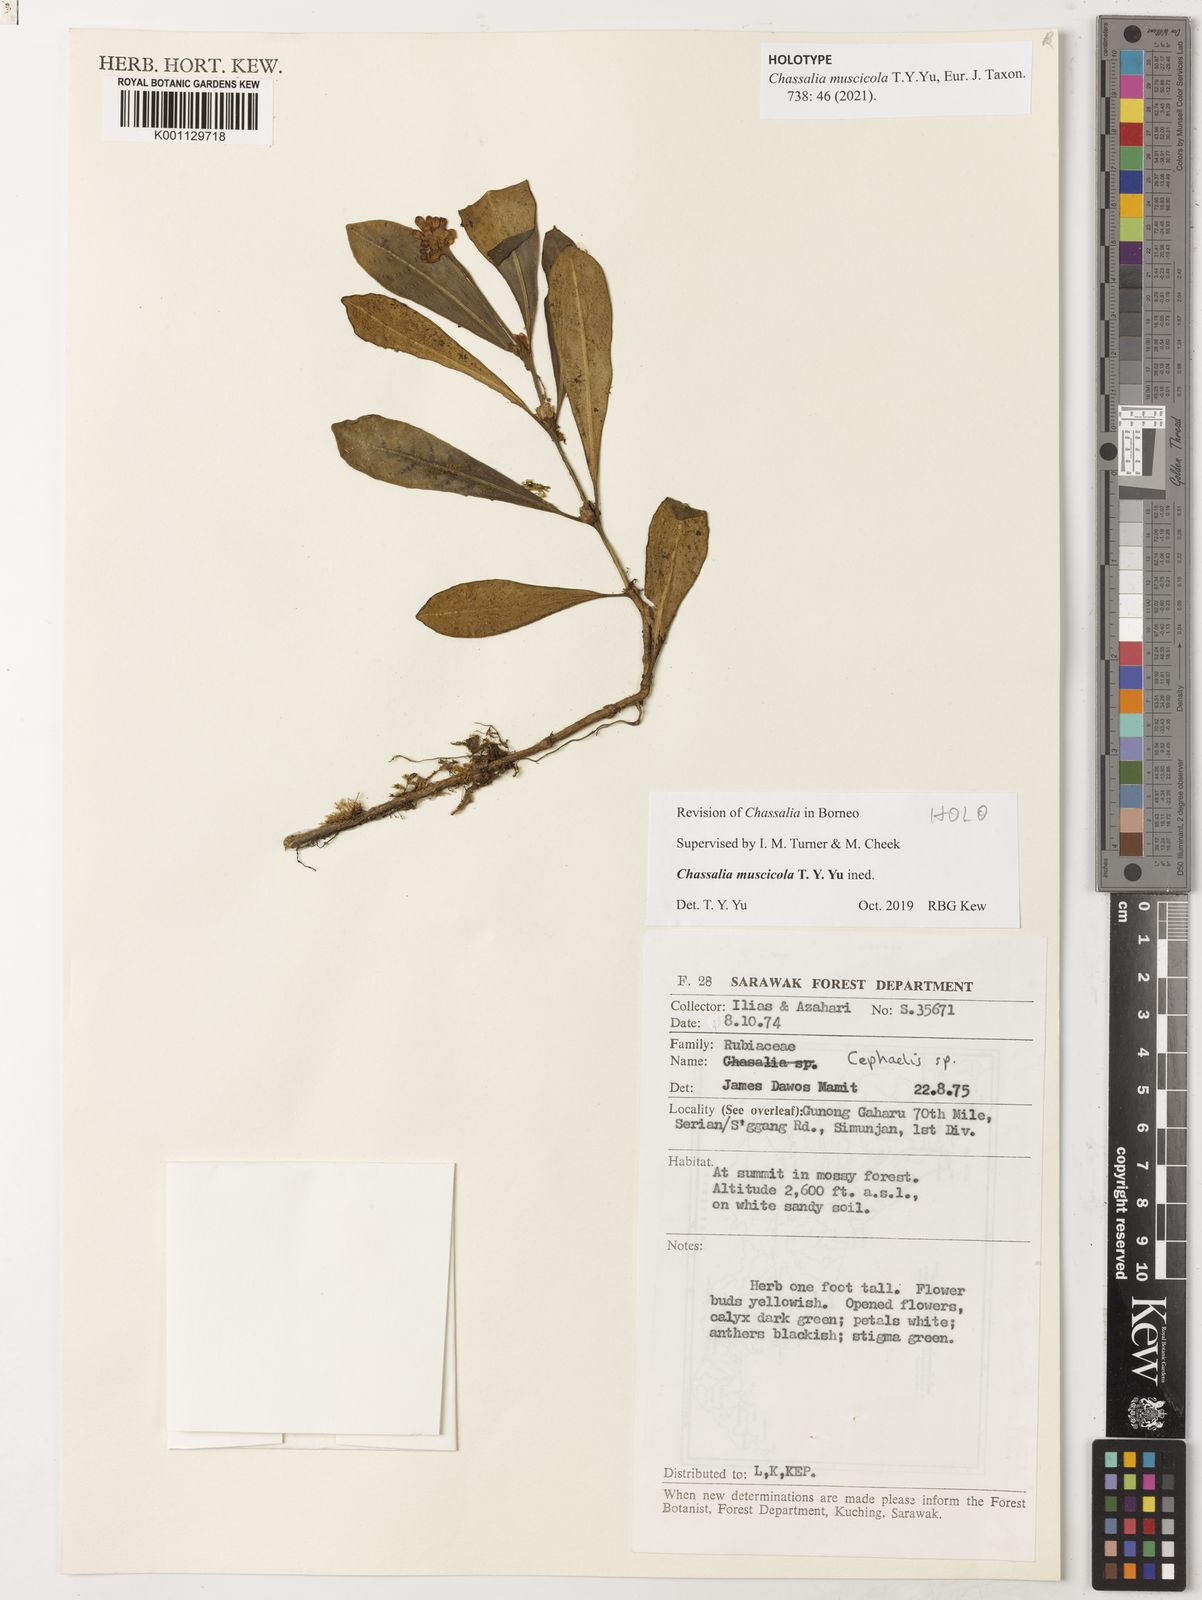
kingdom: Plantae
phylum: Tracheophyta
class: Magnoliopsida
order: Gentianales
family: Rubiaceae
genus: Chassalia
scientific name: Chassalia
